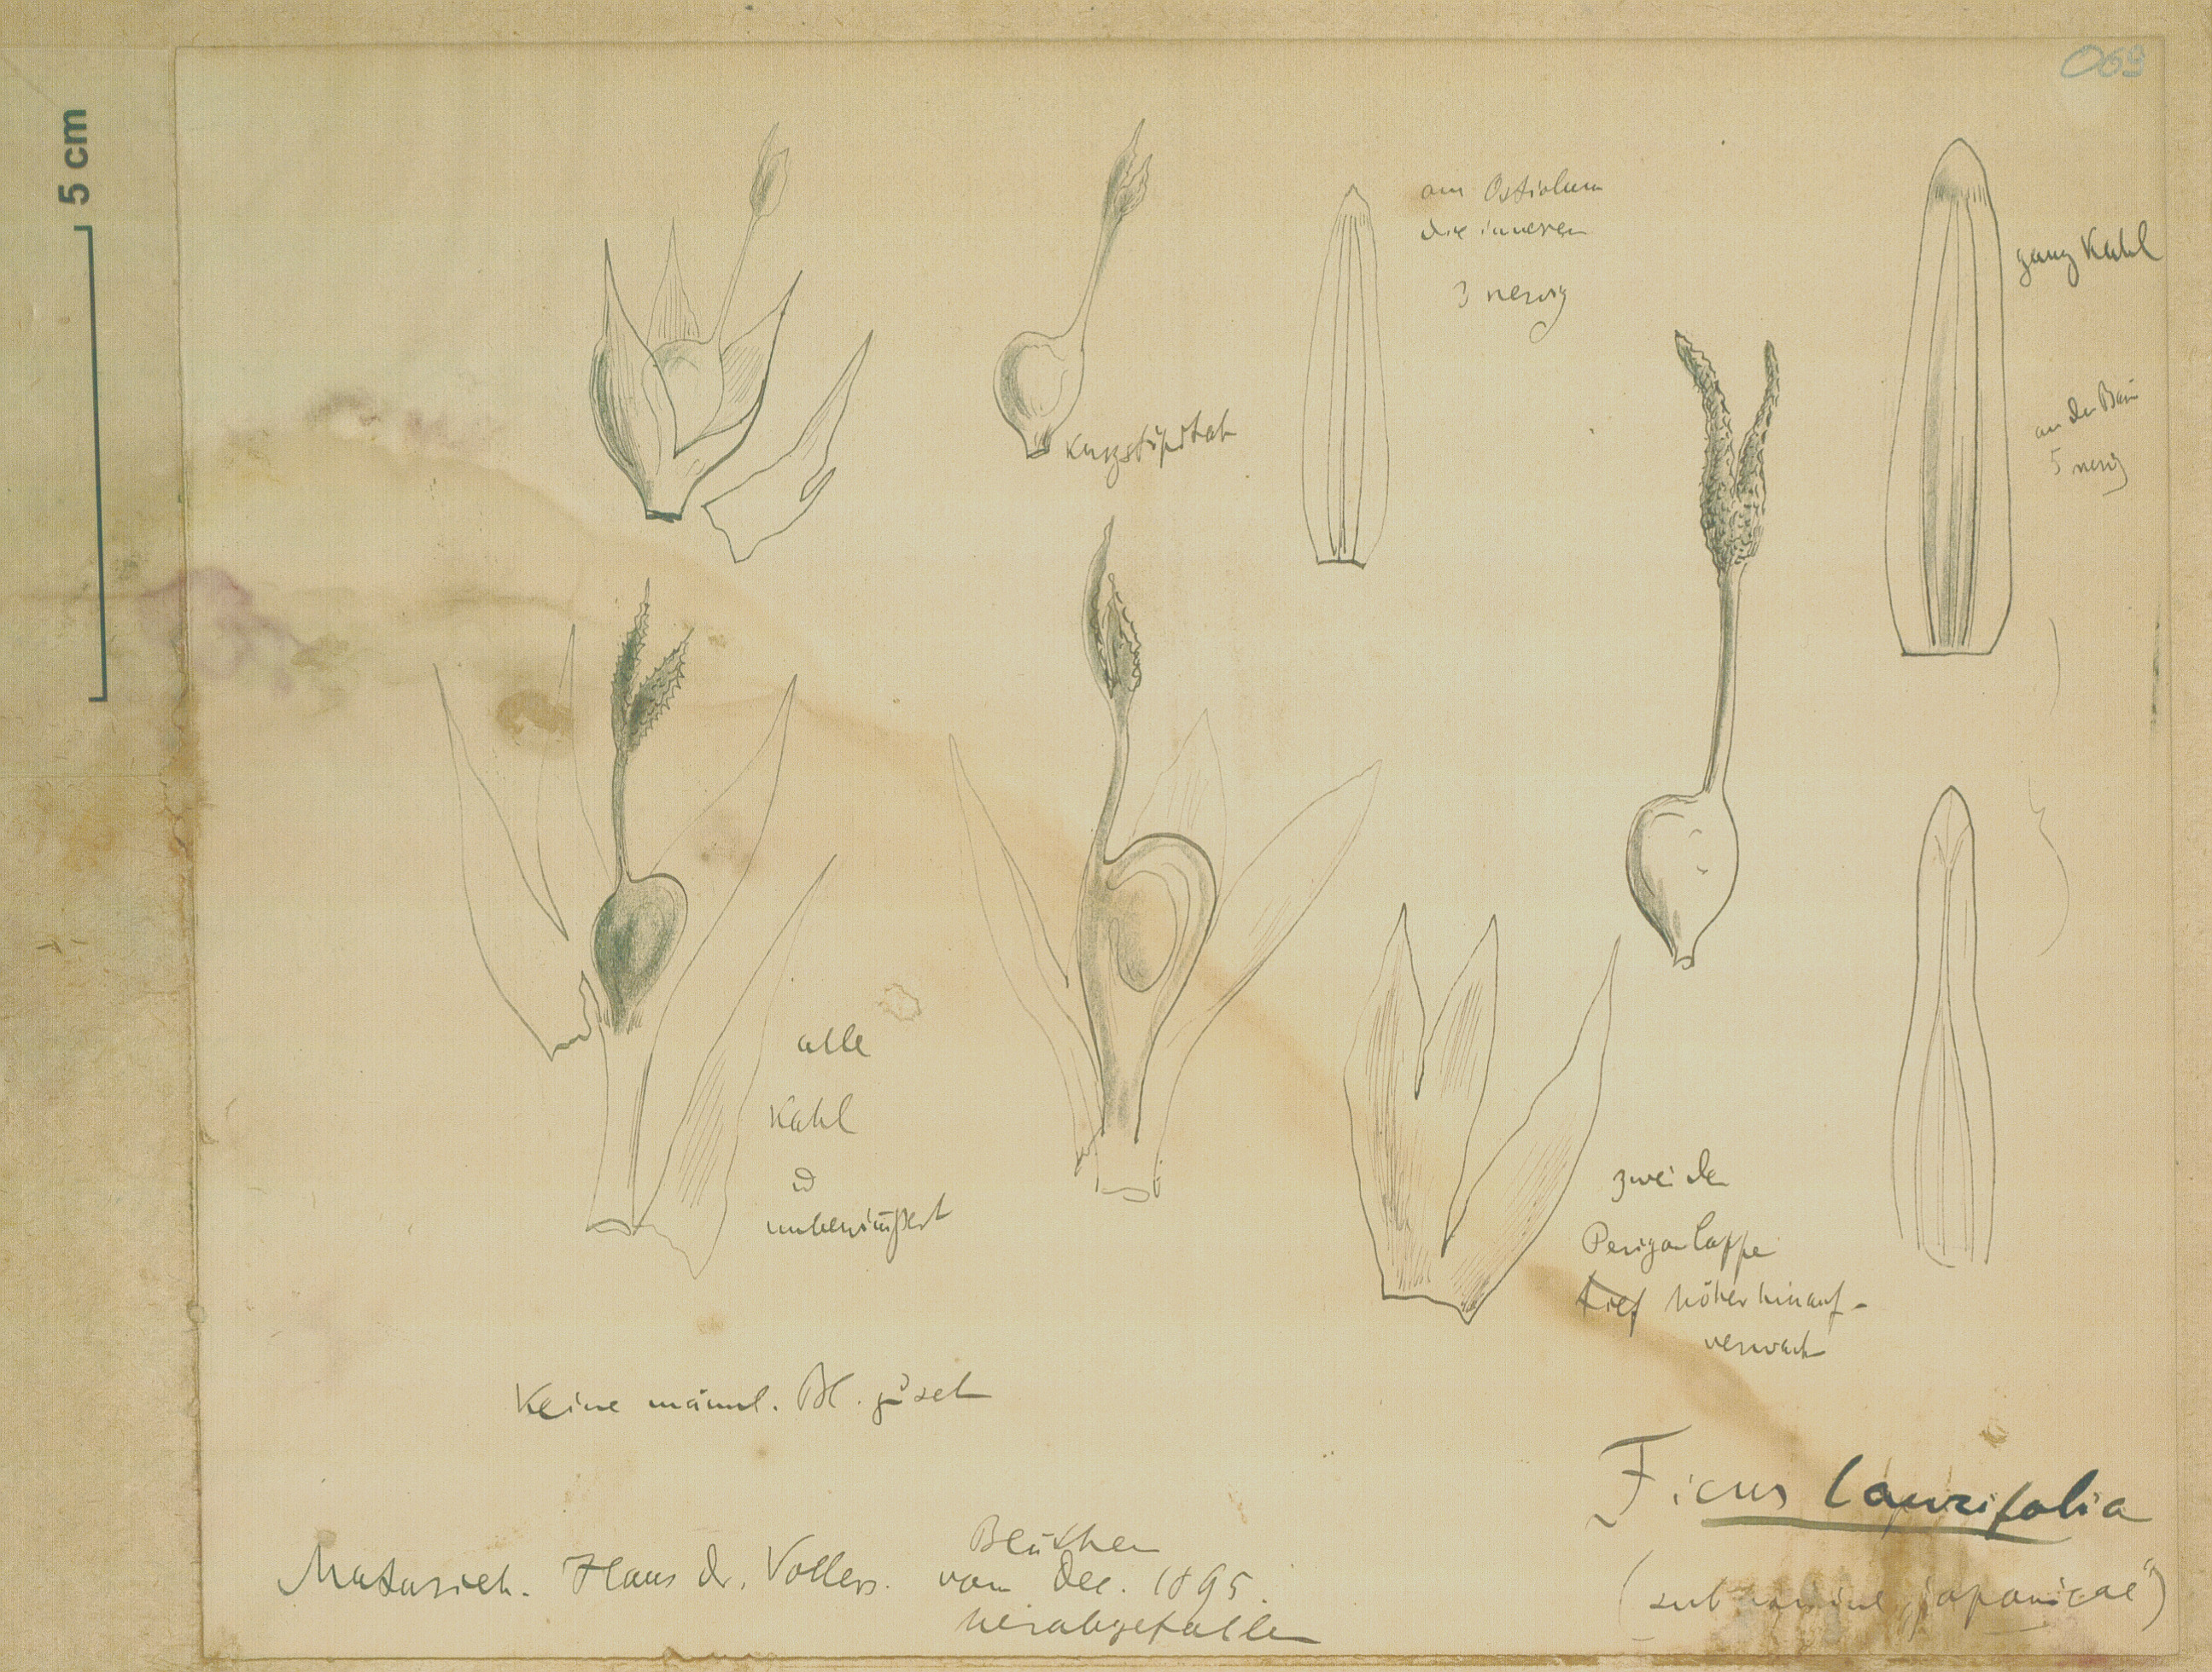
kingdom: Plantae
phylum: Tracheophyta
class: Magnoliopsida
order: Rosales
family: Moraceae
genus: Ficus
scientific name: Ficus maxima
